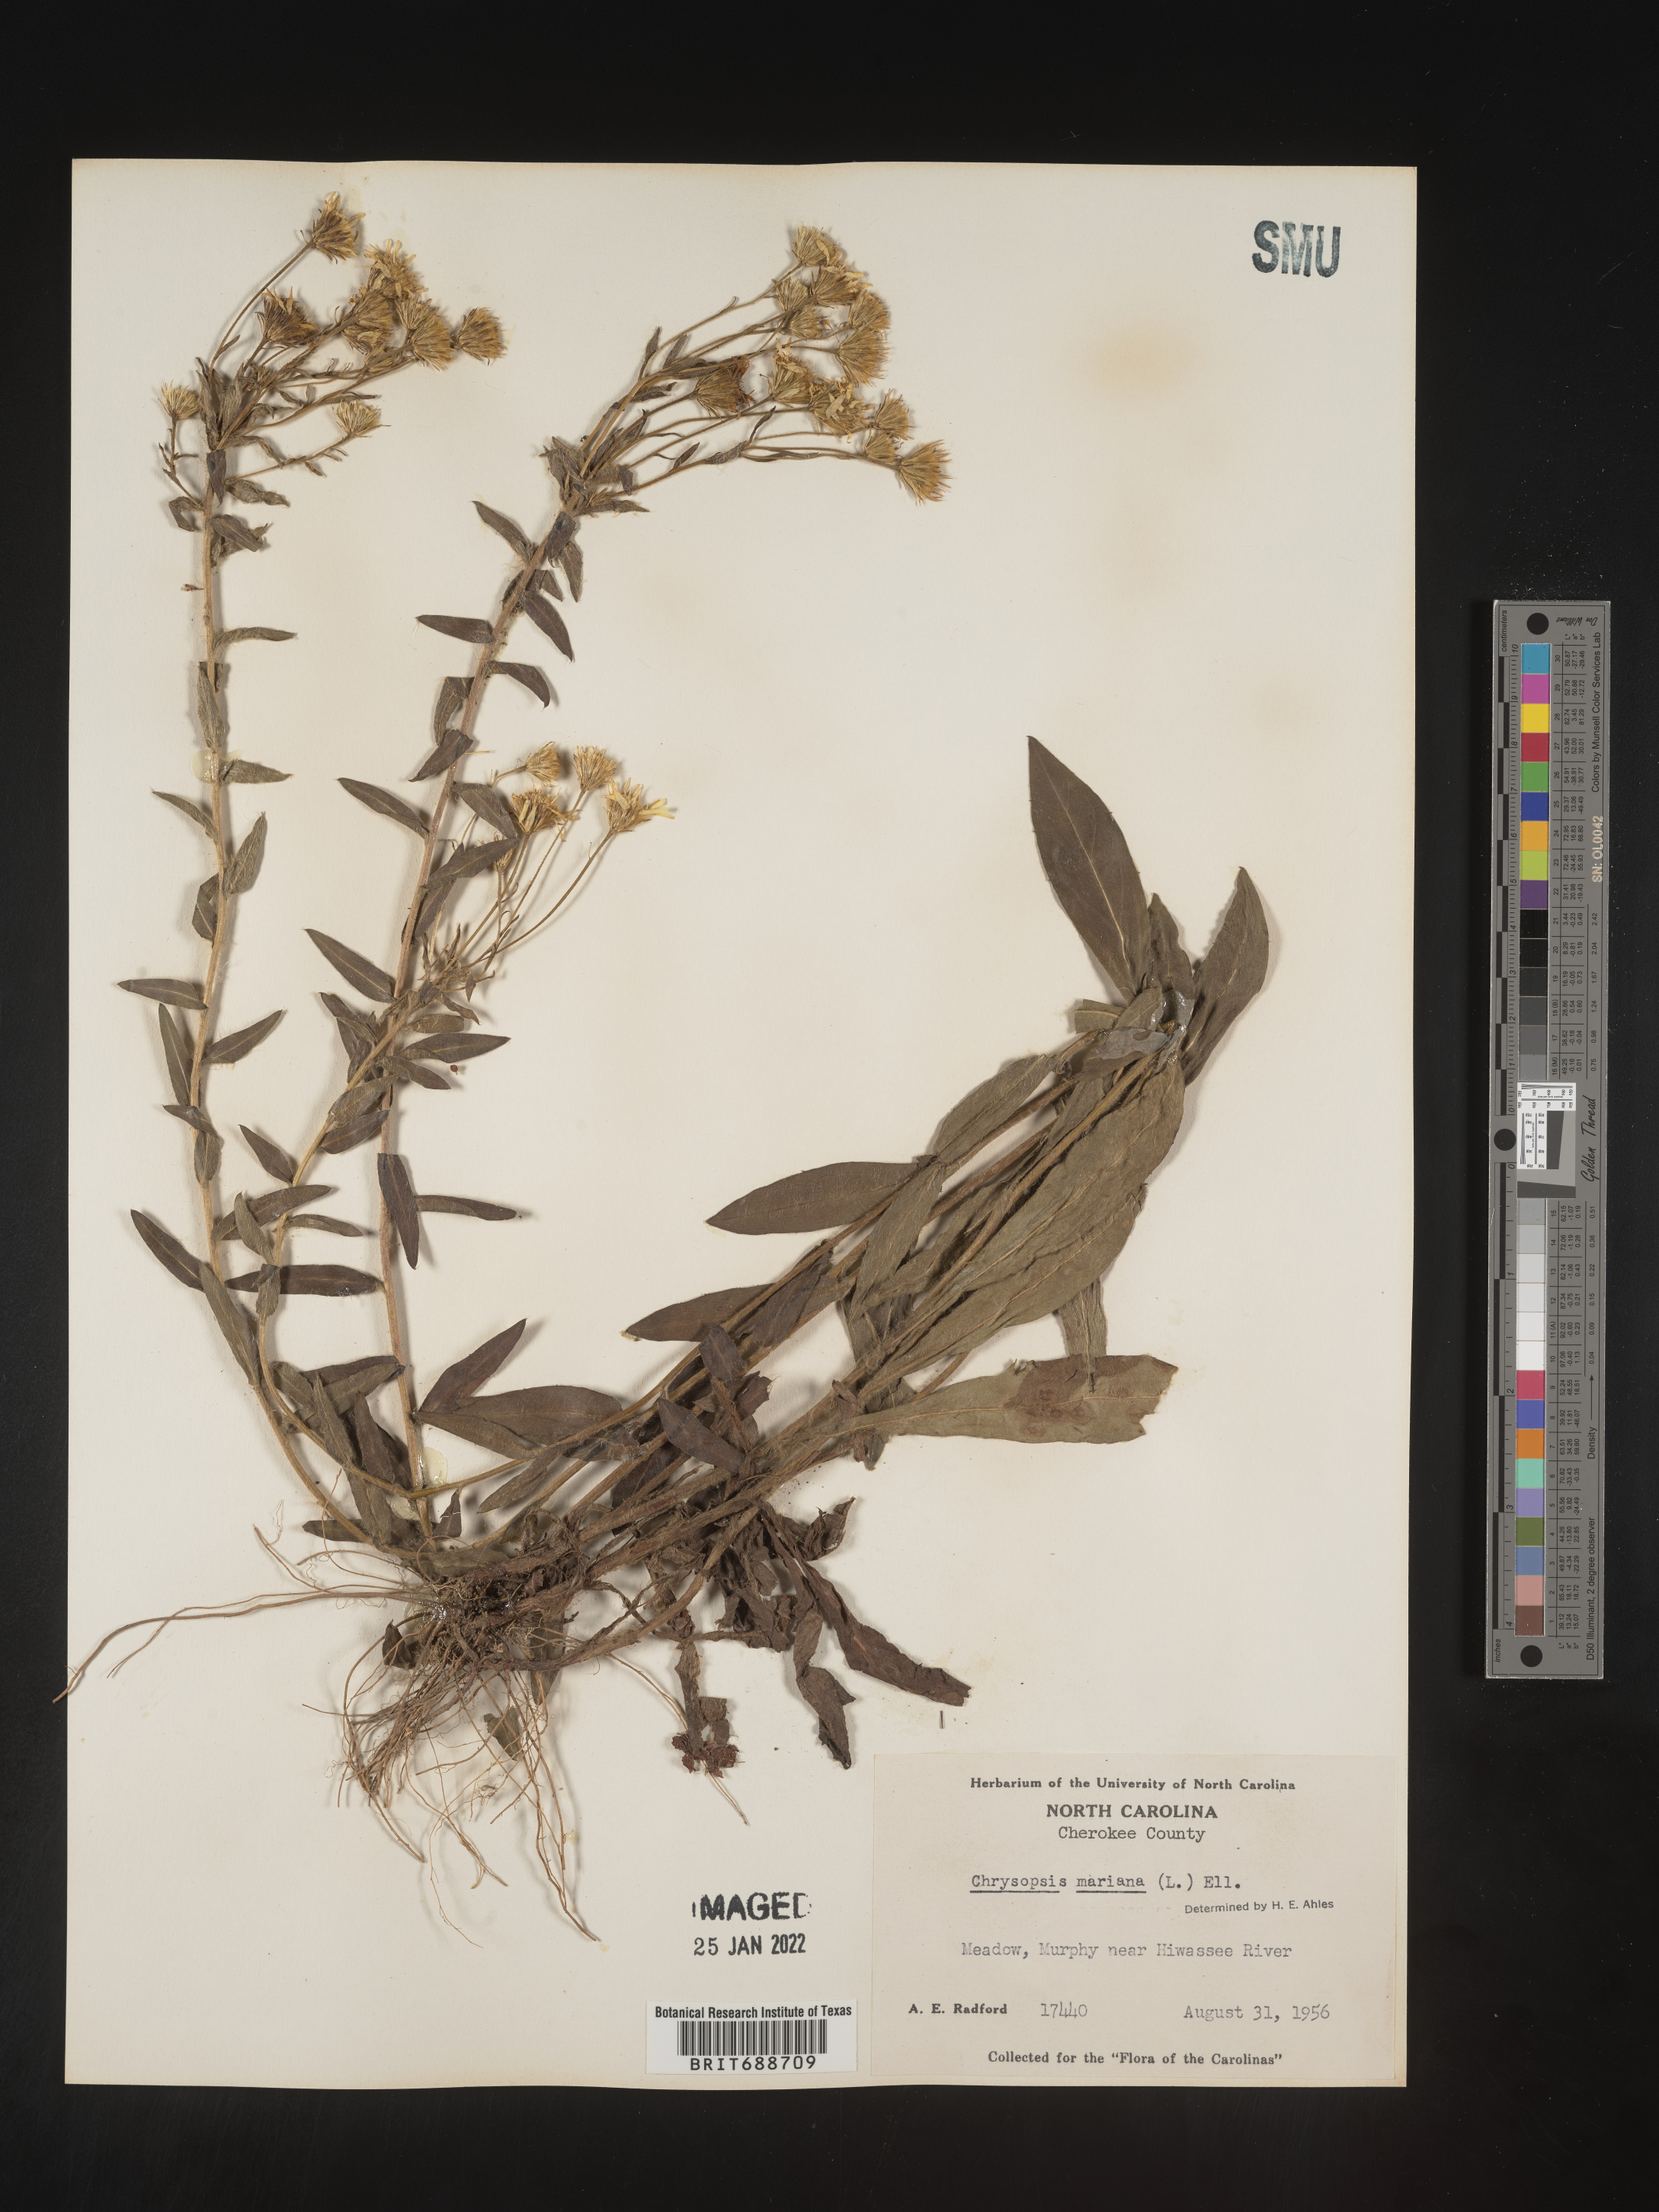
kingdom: Plantae
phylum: Tracheophyta
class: Magnoliopsida
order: Asterales
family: Asteraceae
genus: Chrysopsis
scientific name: Chrysopsis mariana
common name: Maryland golden-aster
